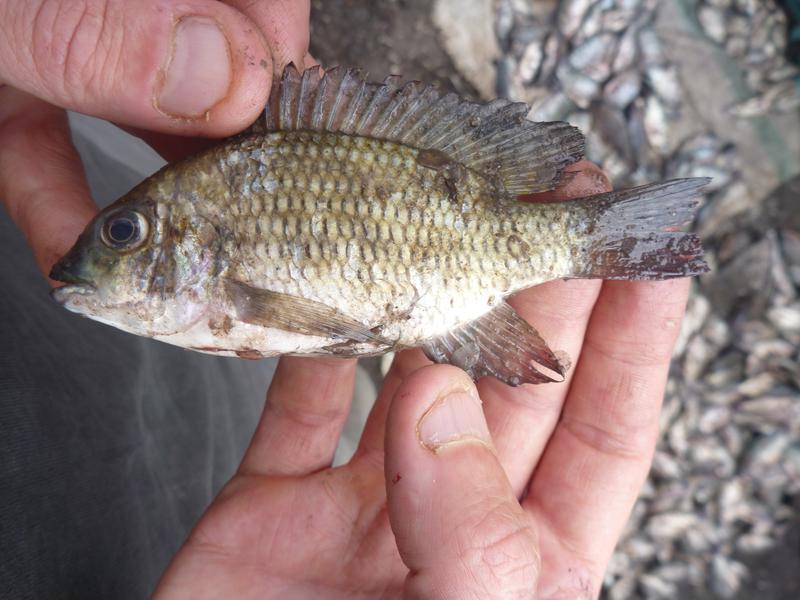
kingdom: Animalia
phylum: Chordata
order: Perciformes
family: Cichlidae
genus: Coptodon
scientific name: Coptodon rendalli
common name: Redbreast tilapia
